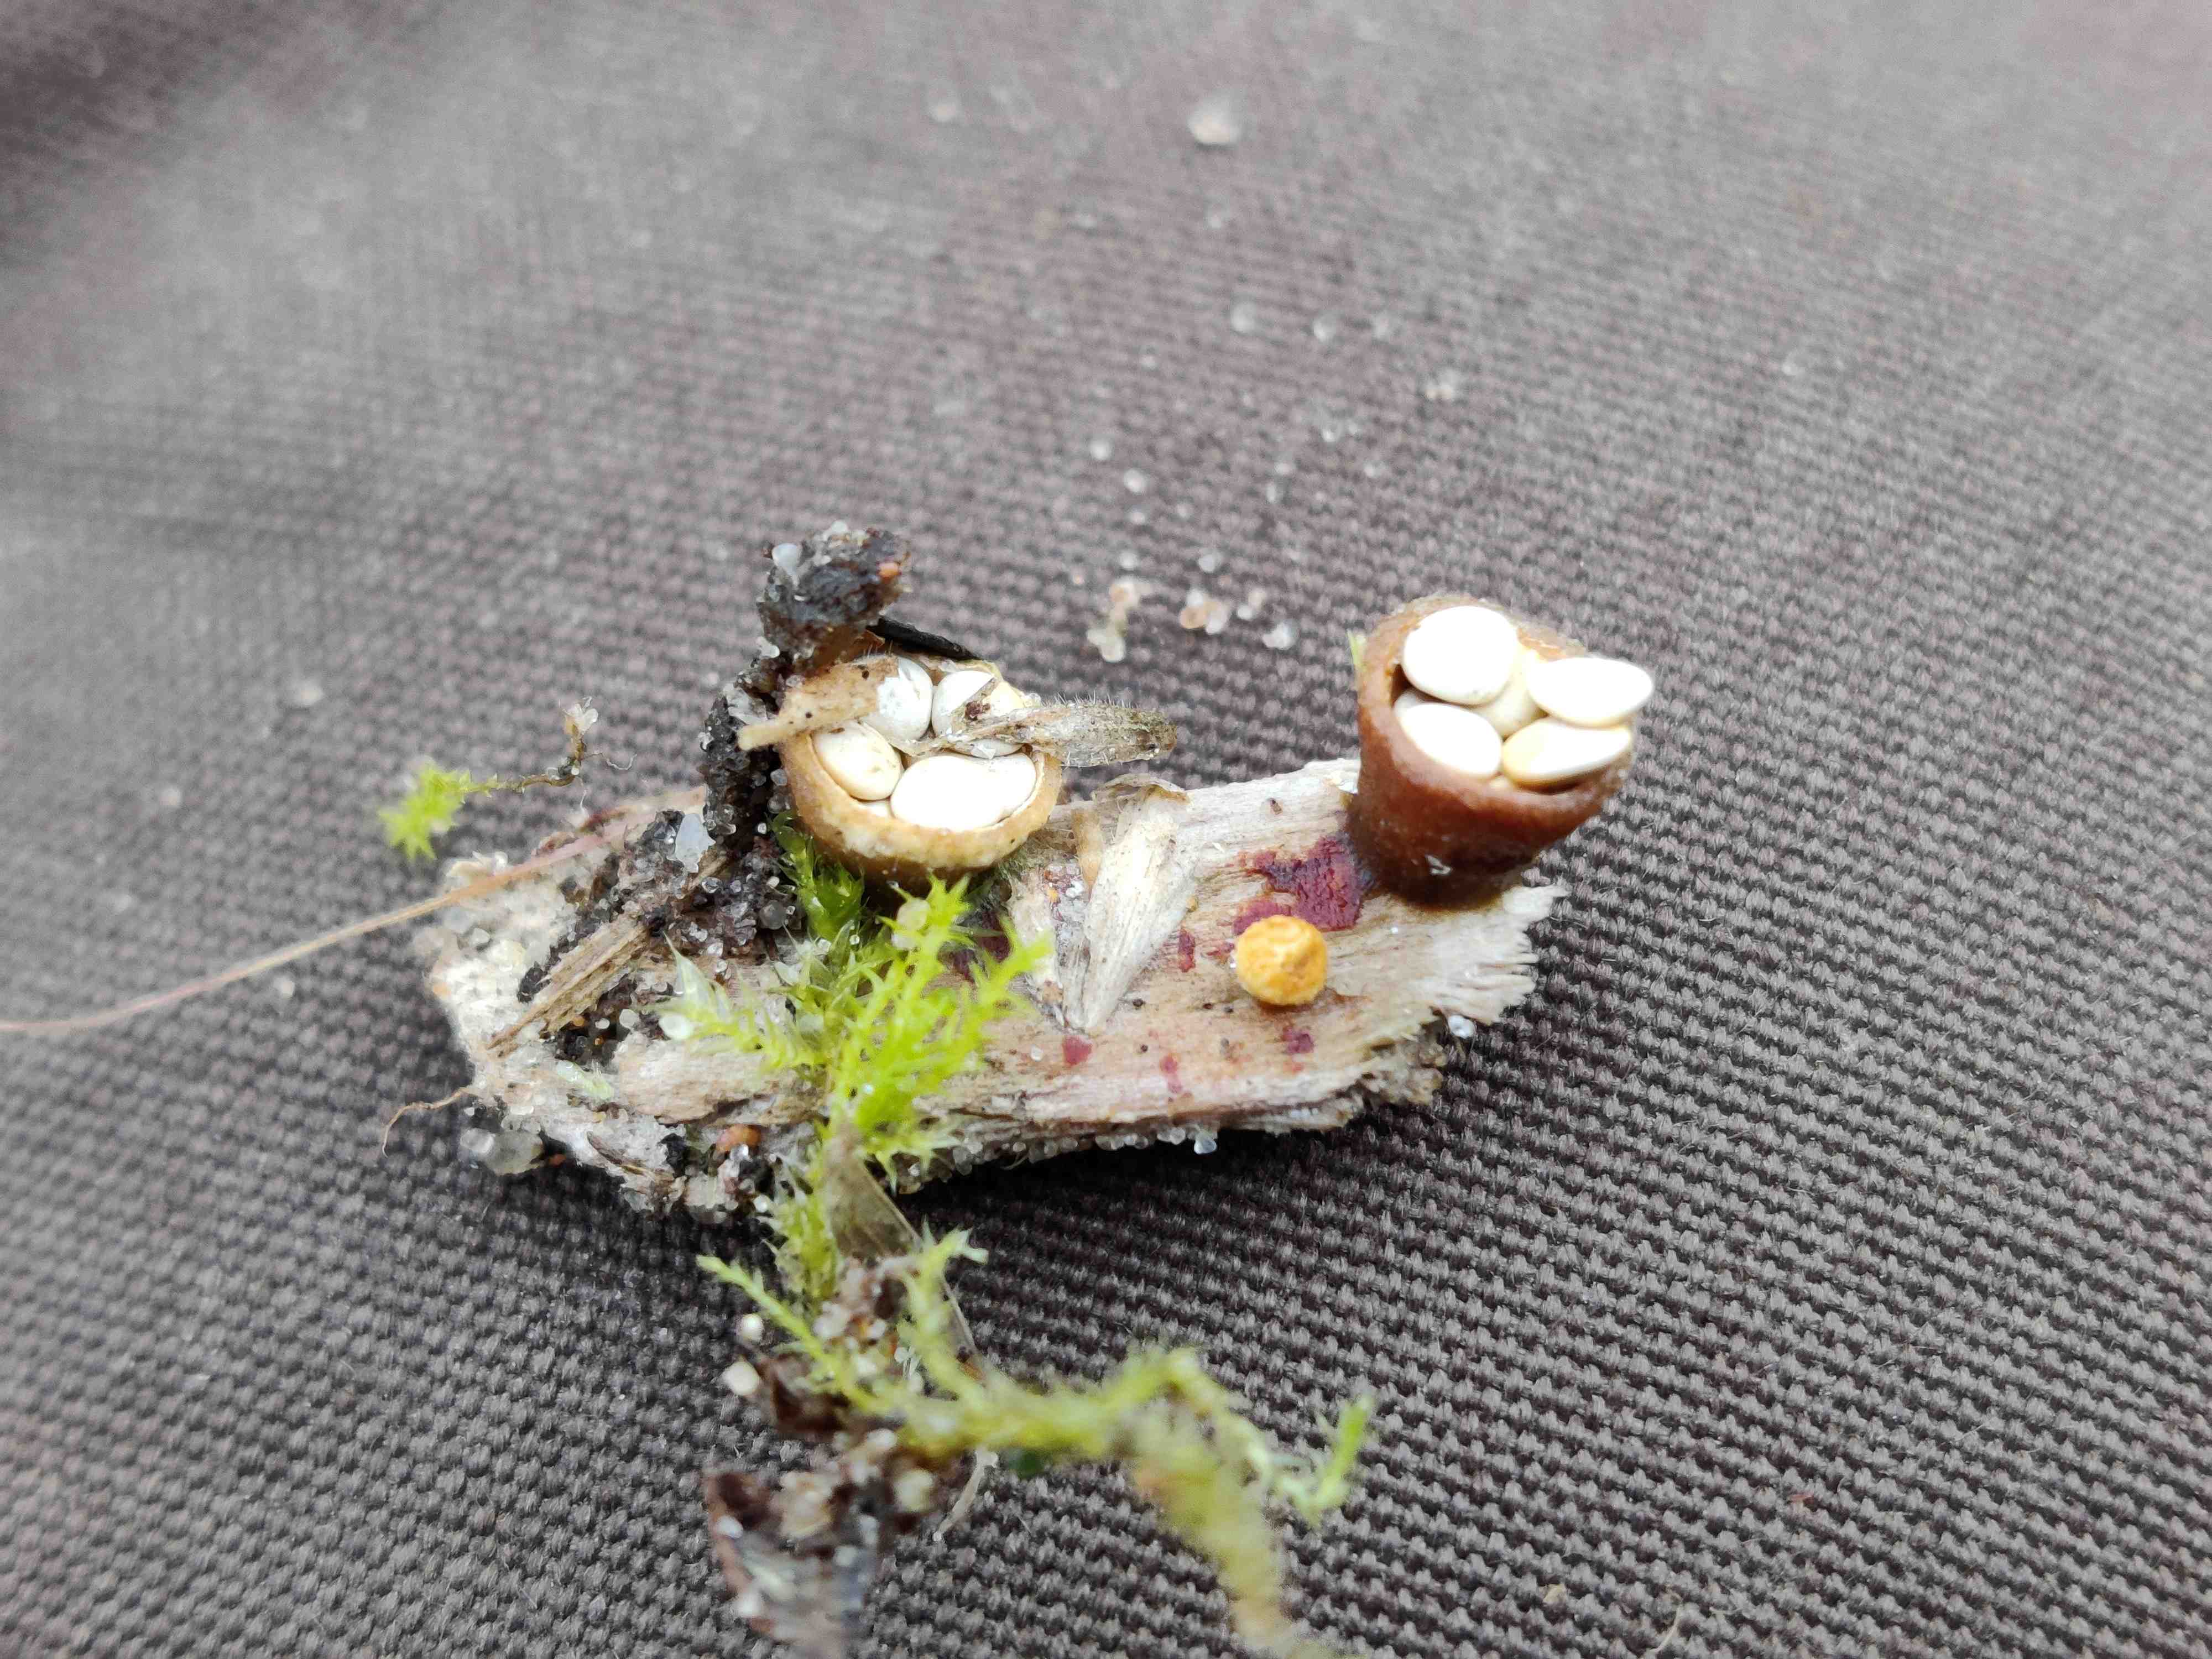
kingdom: Fungi
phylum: Basidiomycota
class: Agaricomycetes
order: Agaricales
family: Nidulariaceae
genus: Crucibulum
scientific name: Crucibulum crucibuliforme
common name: krukkesvamp
